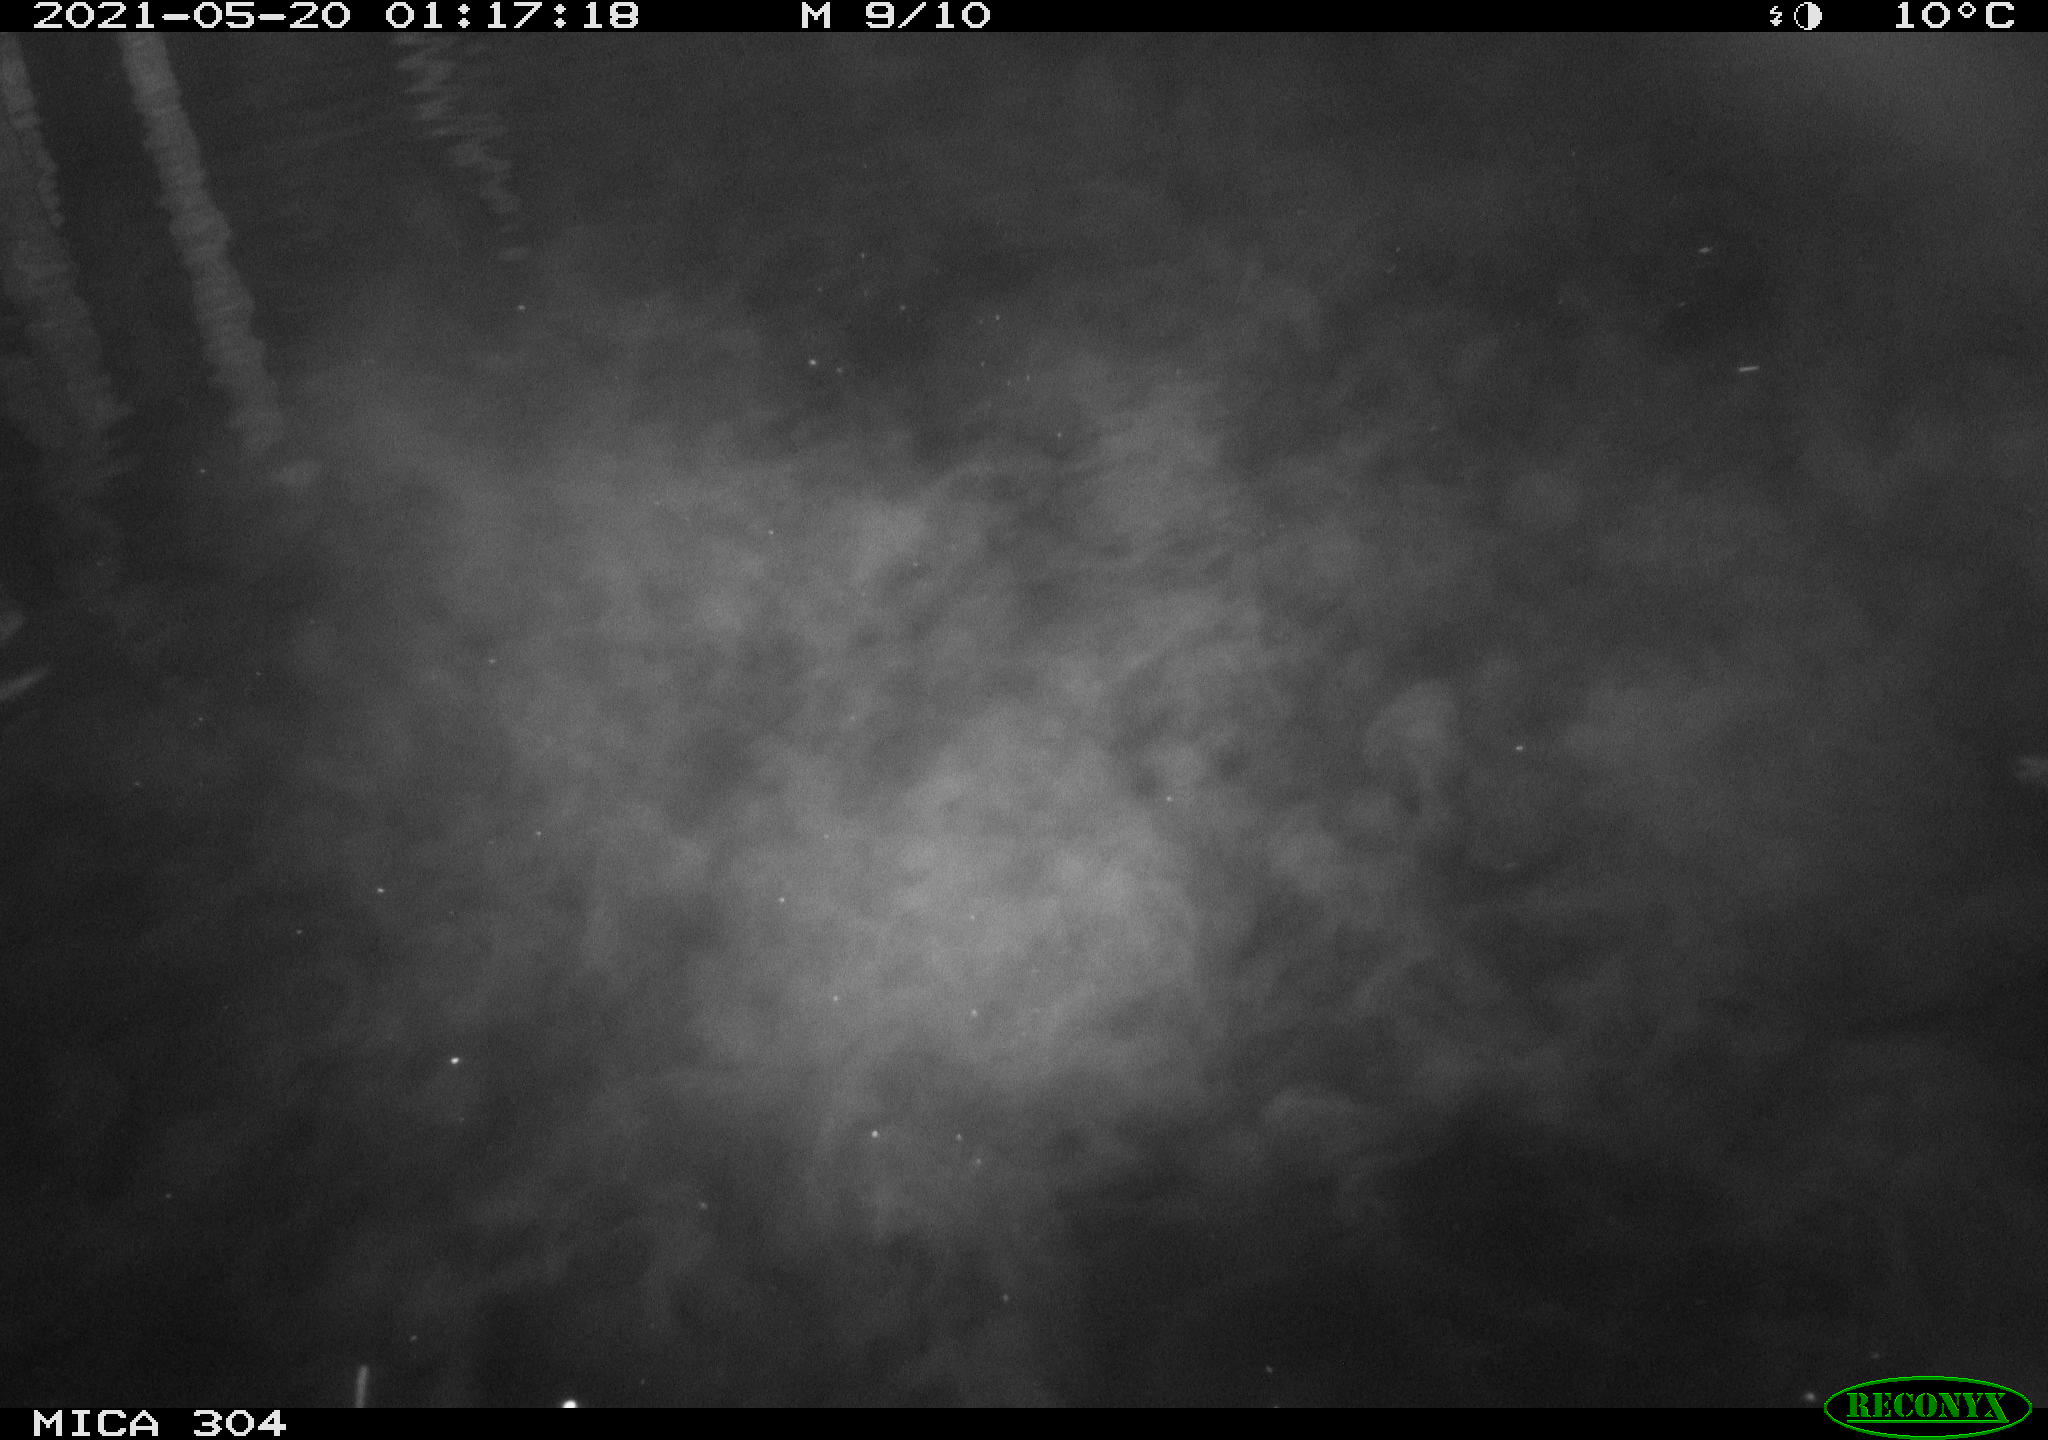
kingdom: Animalia
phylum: Chordata
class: Aves
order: Anseriformes
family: Anatidae
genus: Anas
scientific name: Anas platyrhynchos
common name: Mallard
